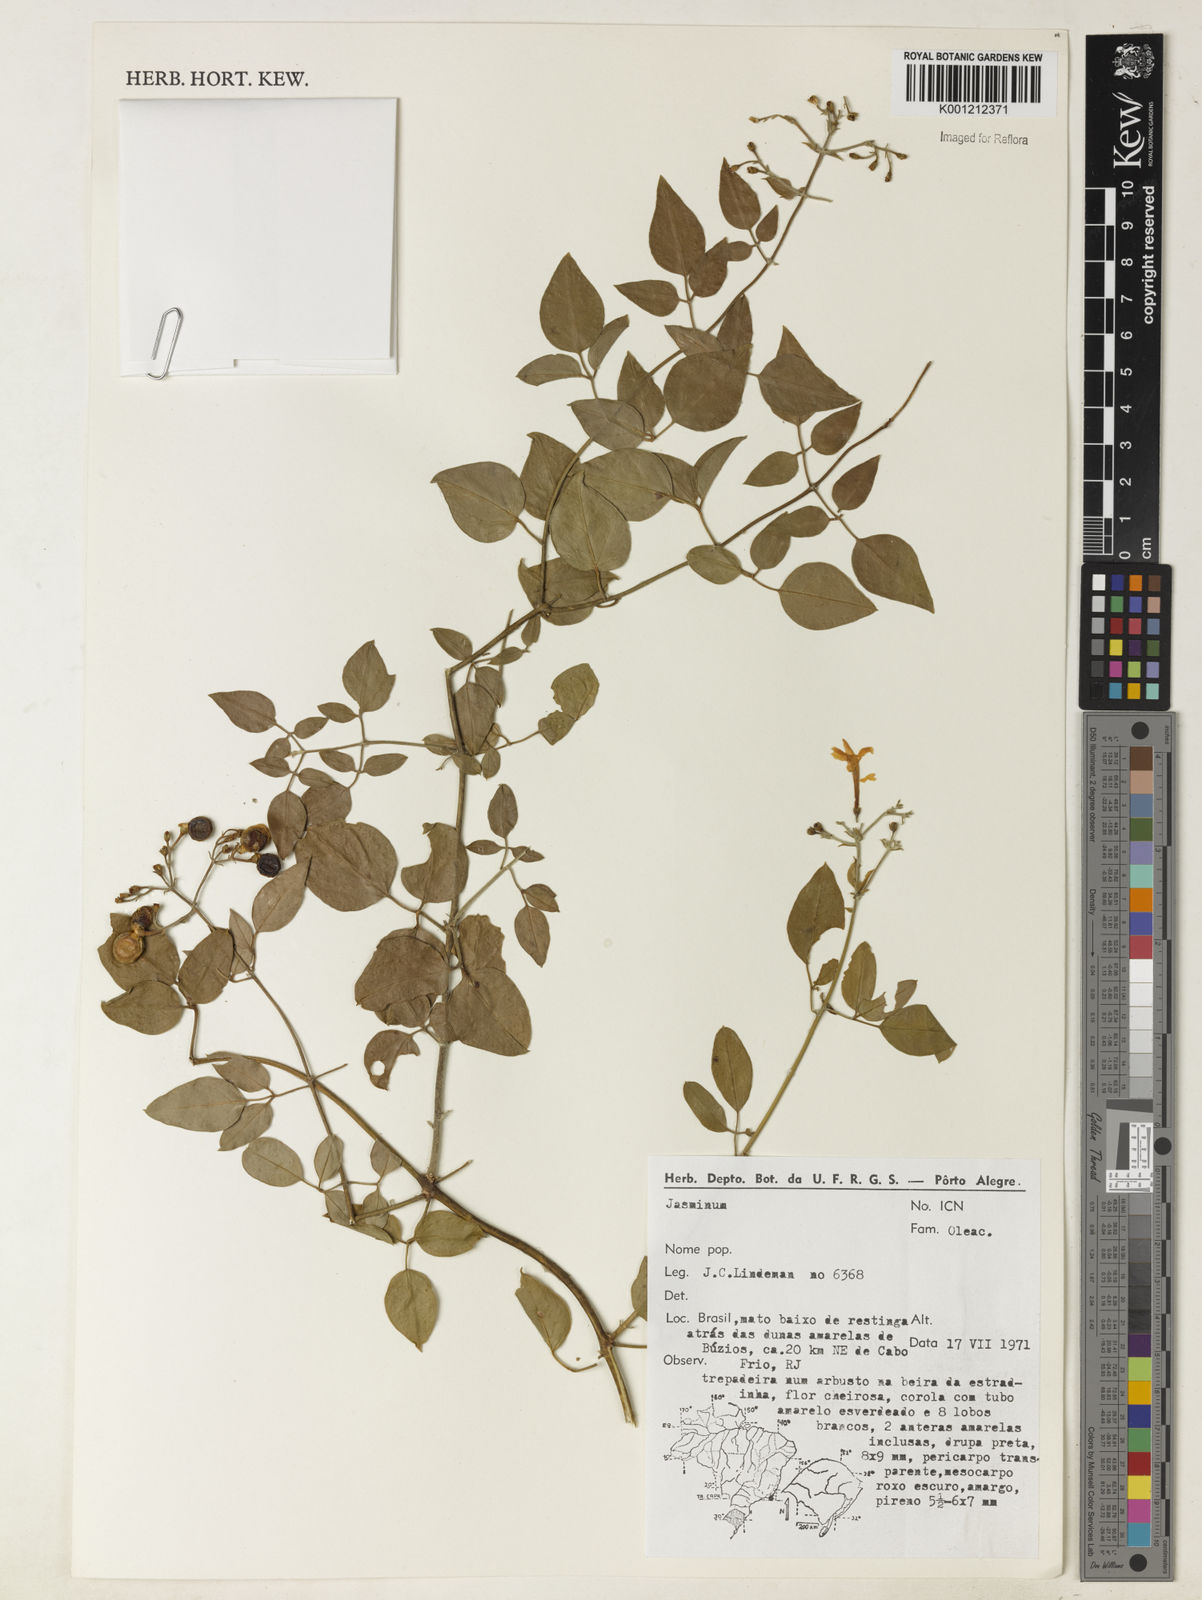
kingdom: Plantae
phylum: Tracheophyta
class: Magnoliopsida
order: Lamiales
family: Oleaceae
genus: Jasminum
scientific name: Jasminum fluminense
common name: Brazilian jasmine
